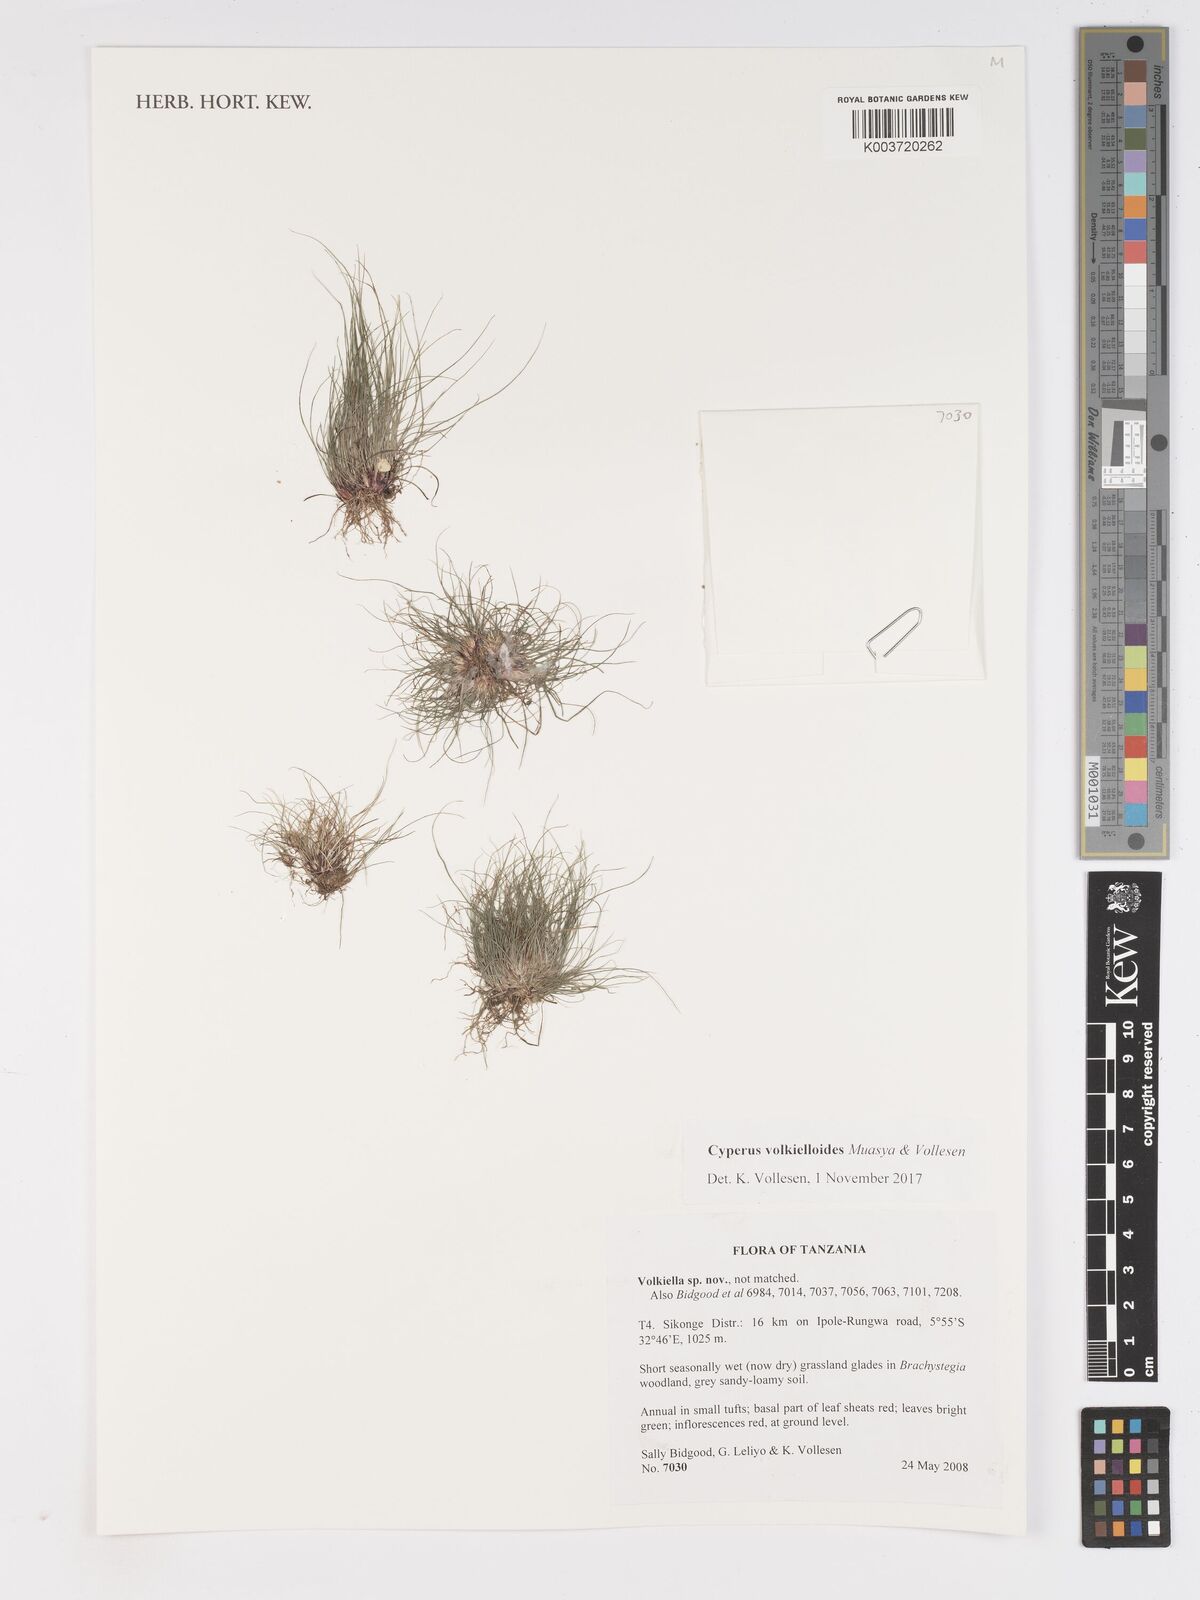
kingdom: Plantae
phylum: Tracheophyta
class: Liliopsida
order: Poales
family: Cyperaceae
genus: Cyperus
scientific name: Cyperus volkielloides
